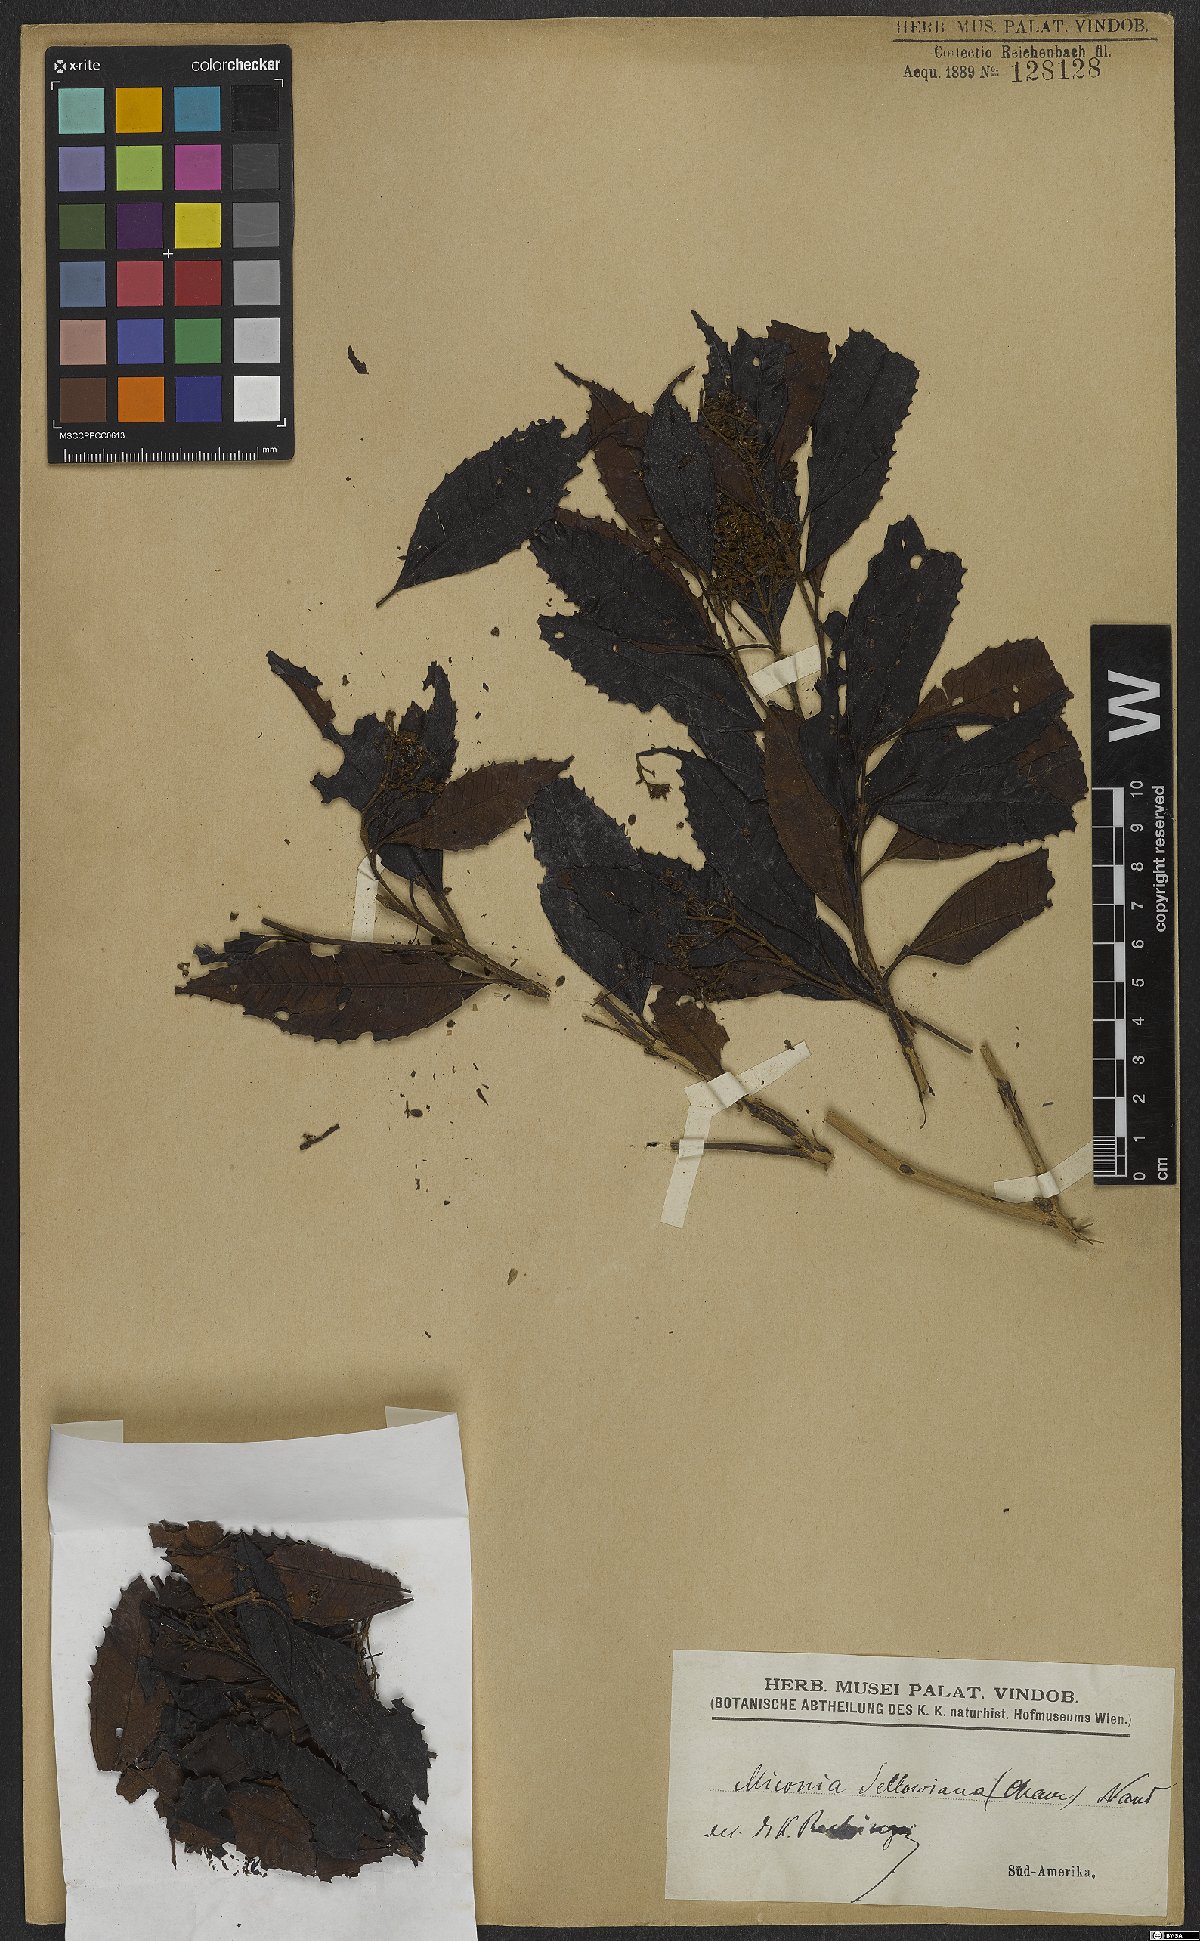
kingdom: Plantae
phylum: Tracheophyta
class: Magnoliopsida
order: Myrtales
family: Melastomataceae
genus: Miconia
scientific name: Miconia sellowiana
